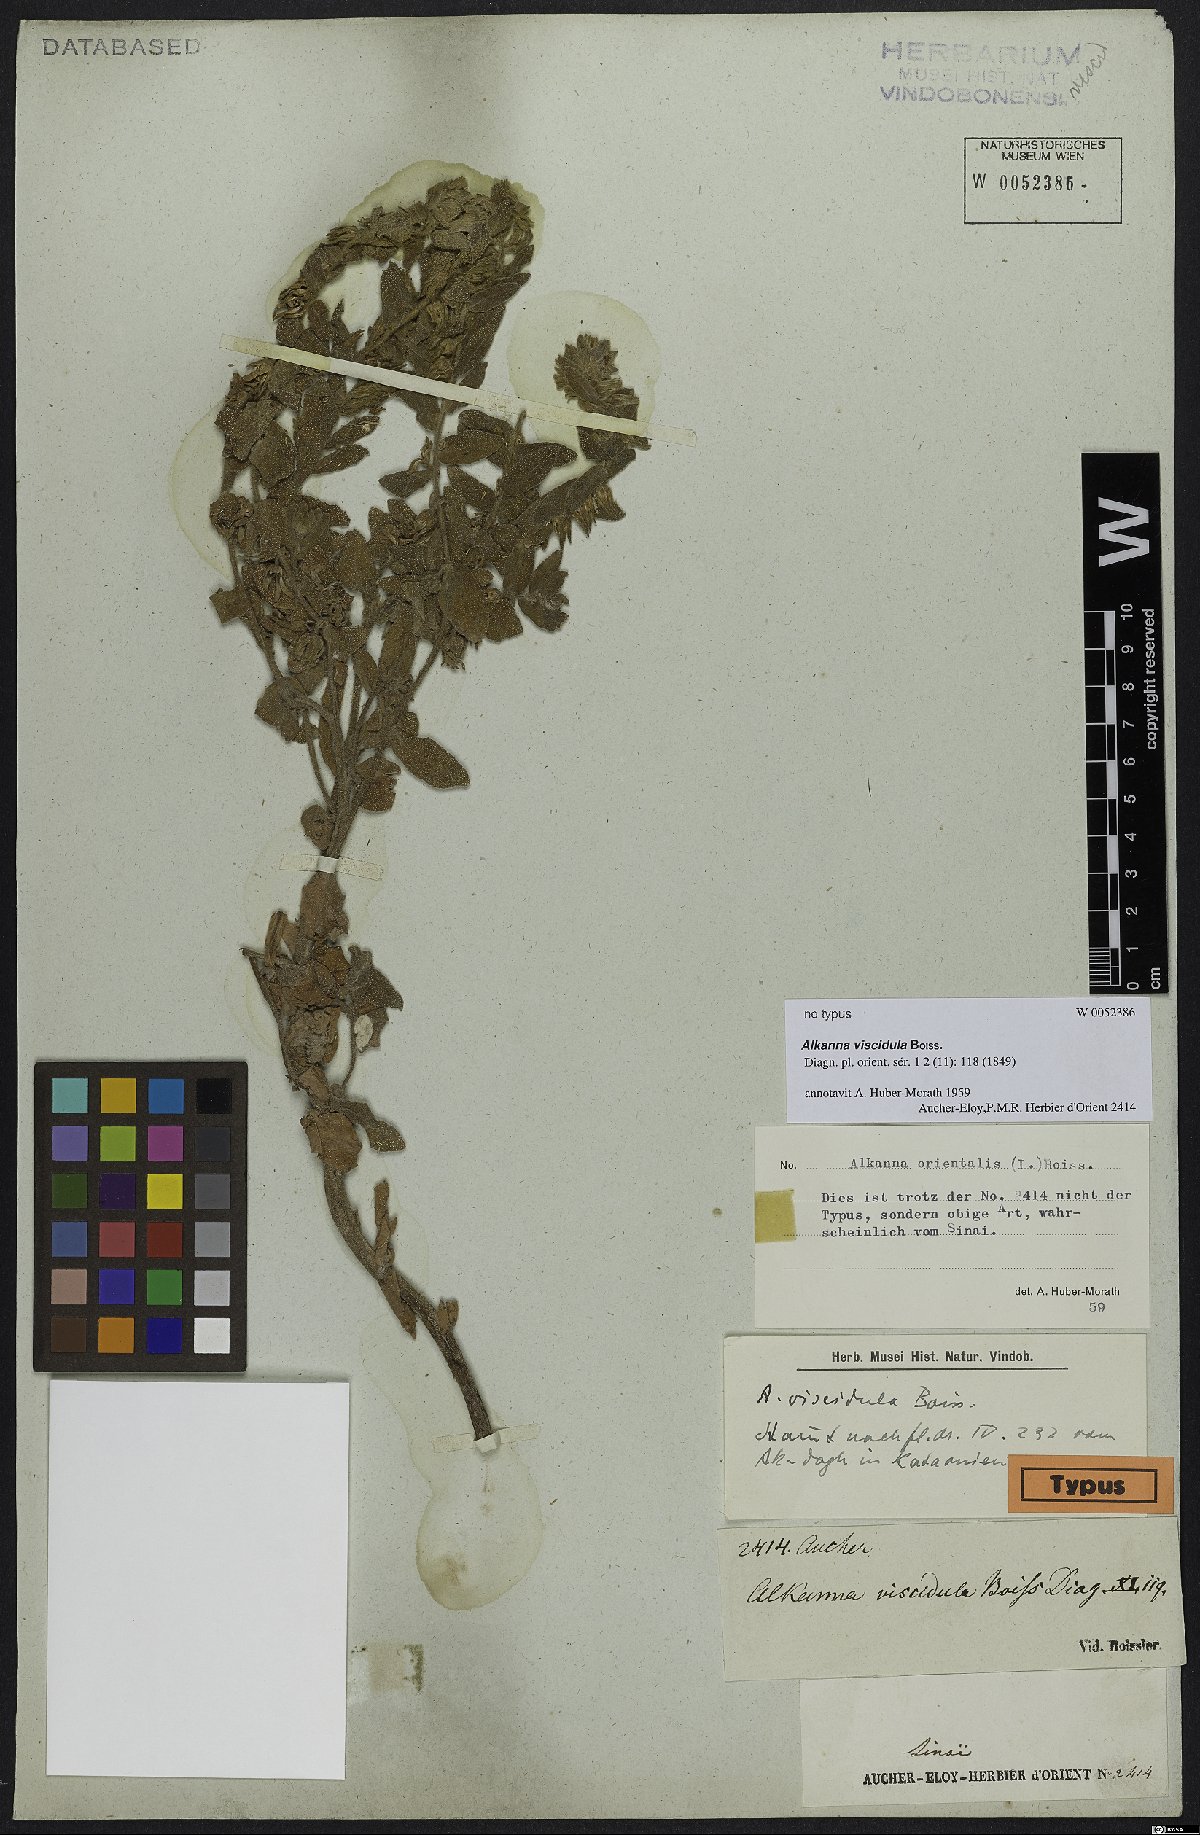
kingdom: Plantae
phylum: Tracheophyta
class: Magnoliopsida
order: Boraginales
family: Boraginaceae
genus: Alkanna
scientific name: Alkanna orientalis
